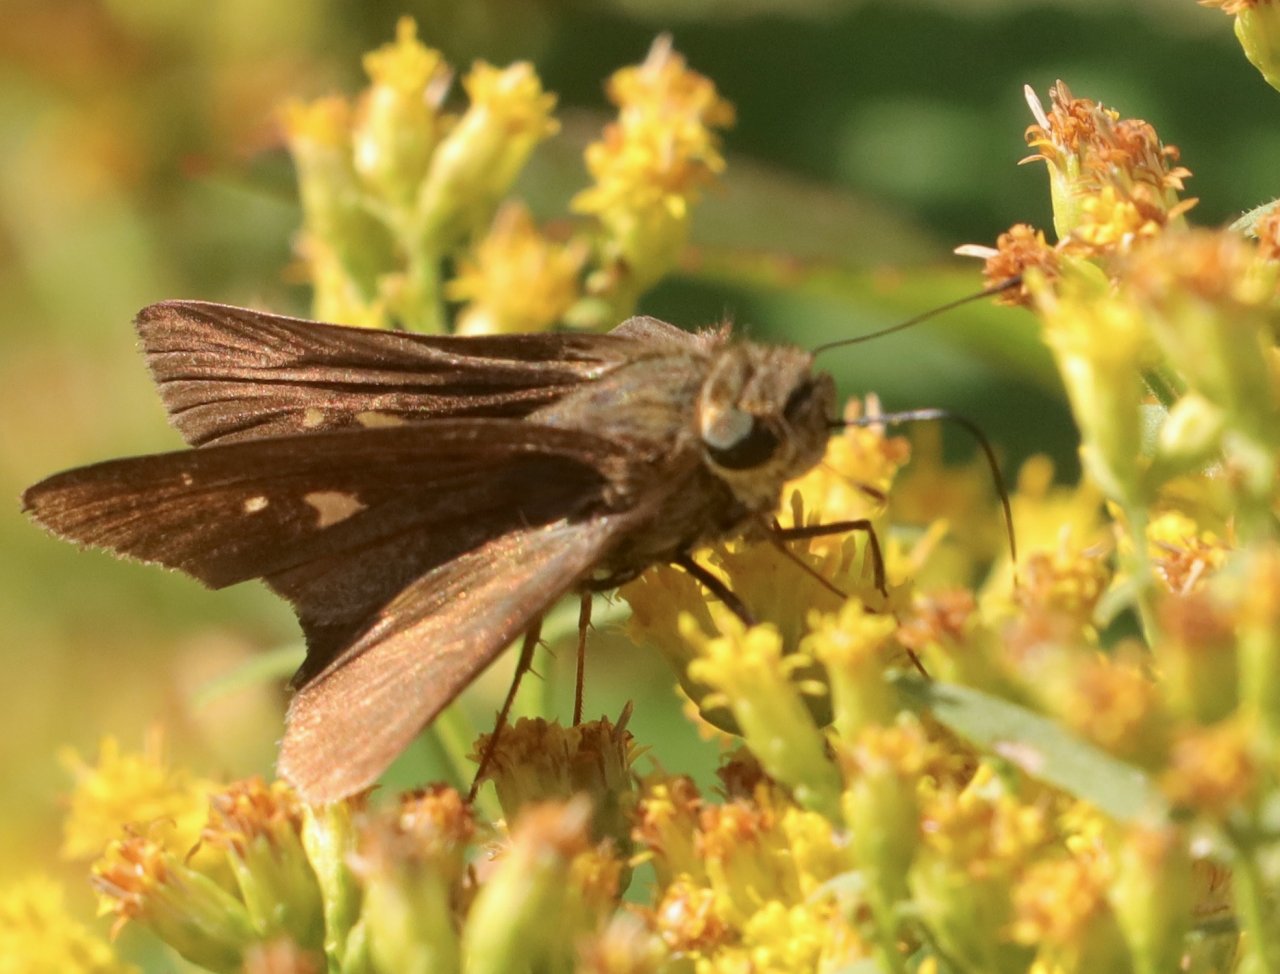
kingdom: Animalia
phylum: Arthropoda
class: Insecta
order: Lepidoptera
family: Hesperiidae
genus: Panoquina
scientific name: Panoquina ocola
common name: Ocola Skipper
